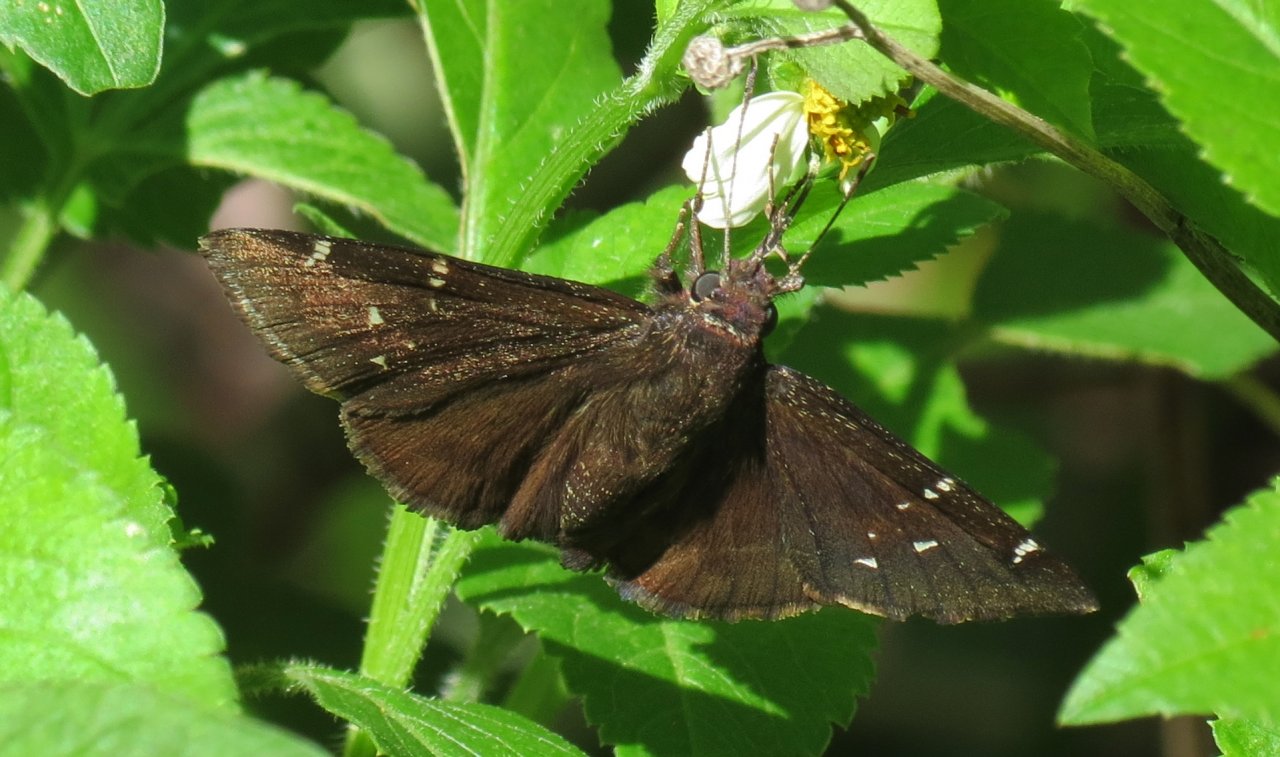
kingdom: Animalia
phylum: Arthropoda
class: Insecta
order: Lepidoptera
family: Hesperiidae
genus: Thorybes
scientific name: Thorybes mexicana
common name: Confused Cloudywing
